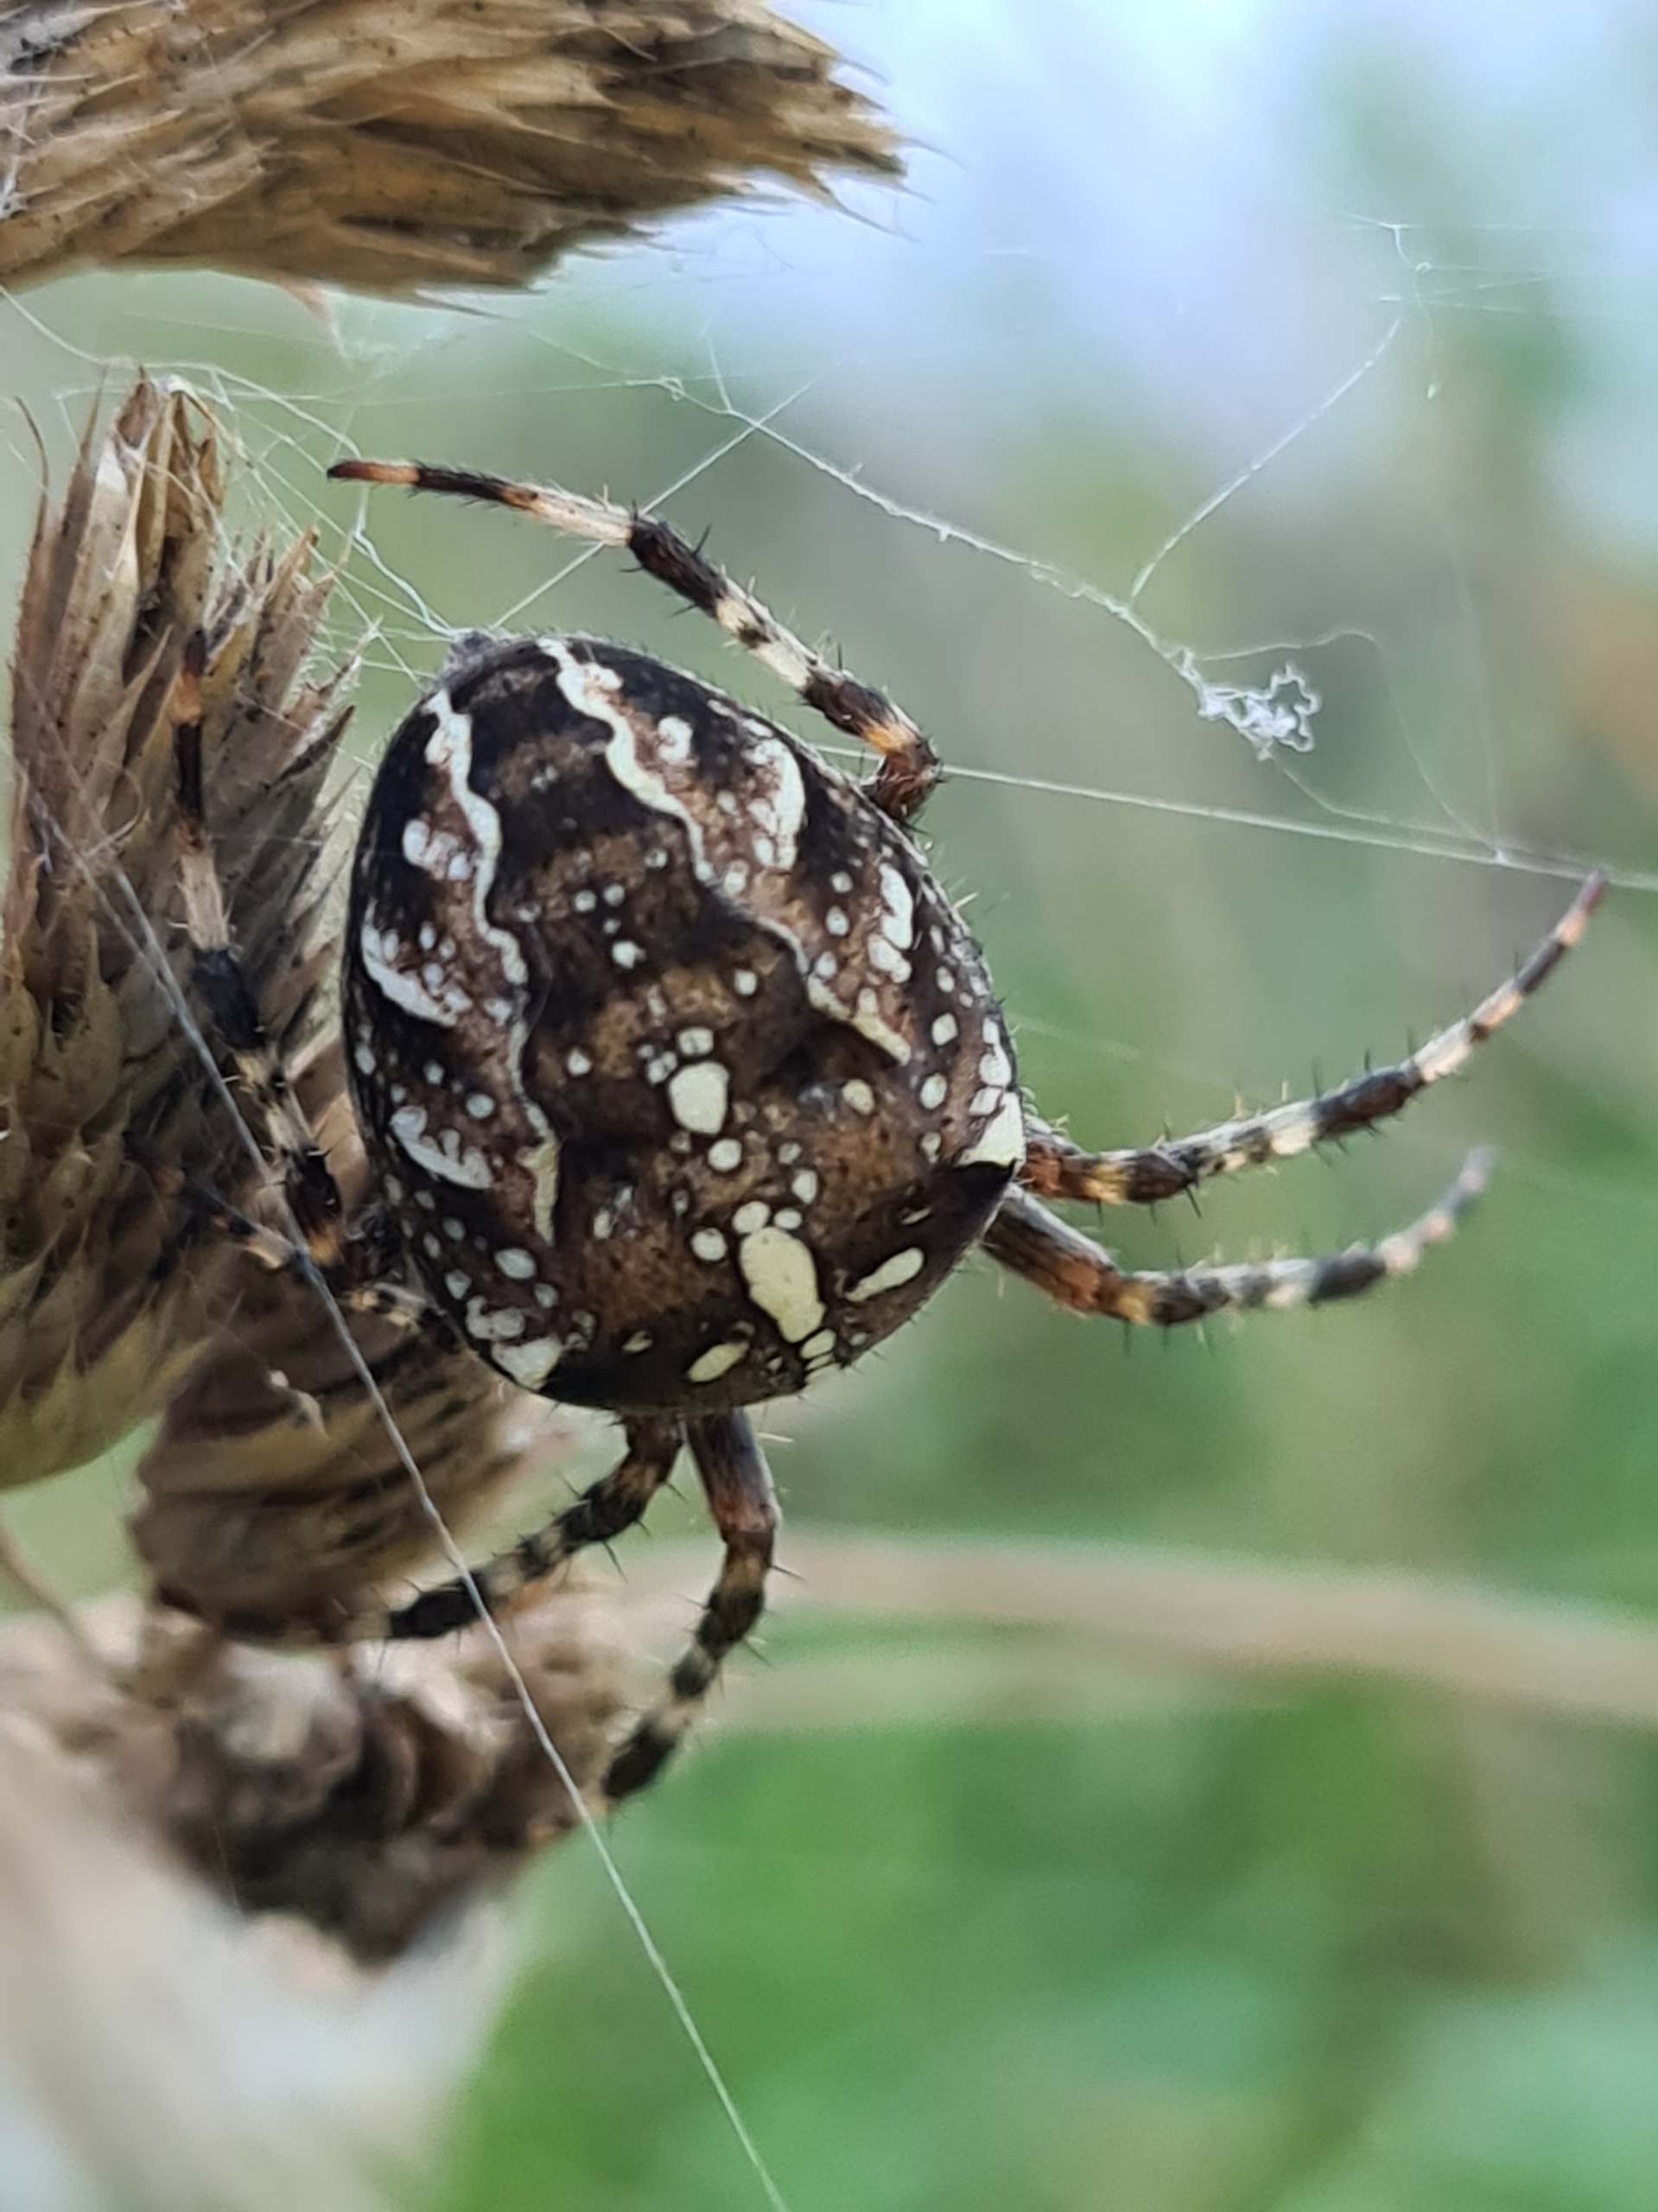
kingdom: Animalia
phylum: Arthropoda
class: Arachnida
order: Araneae
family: Araneidae
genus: Araneus
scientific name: Araneus diadematus
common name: Korsedderkop
